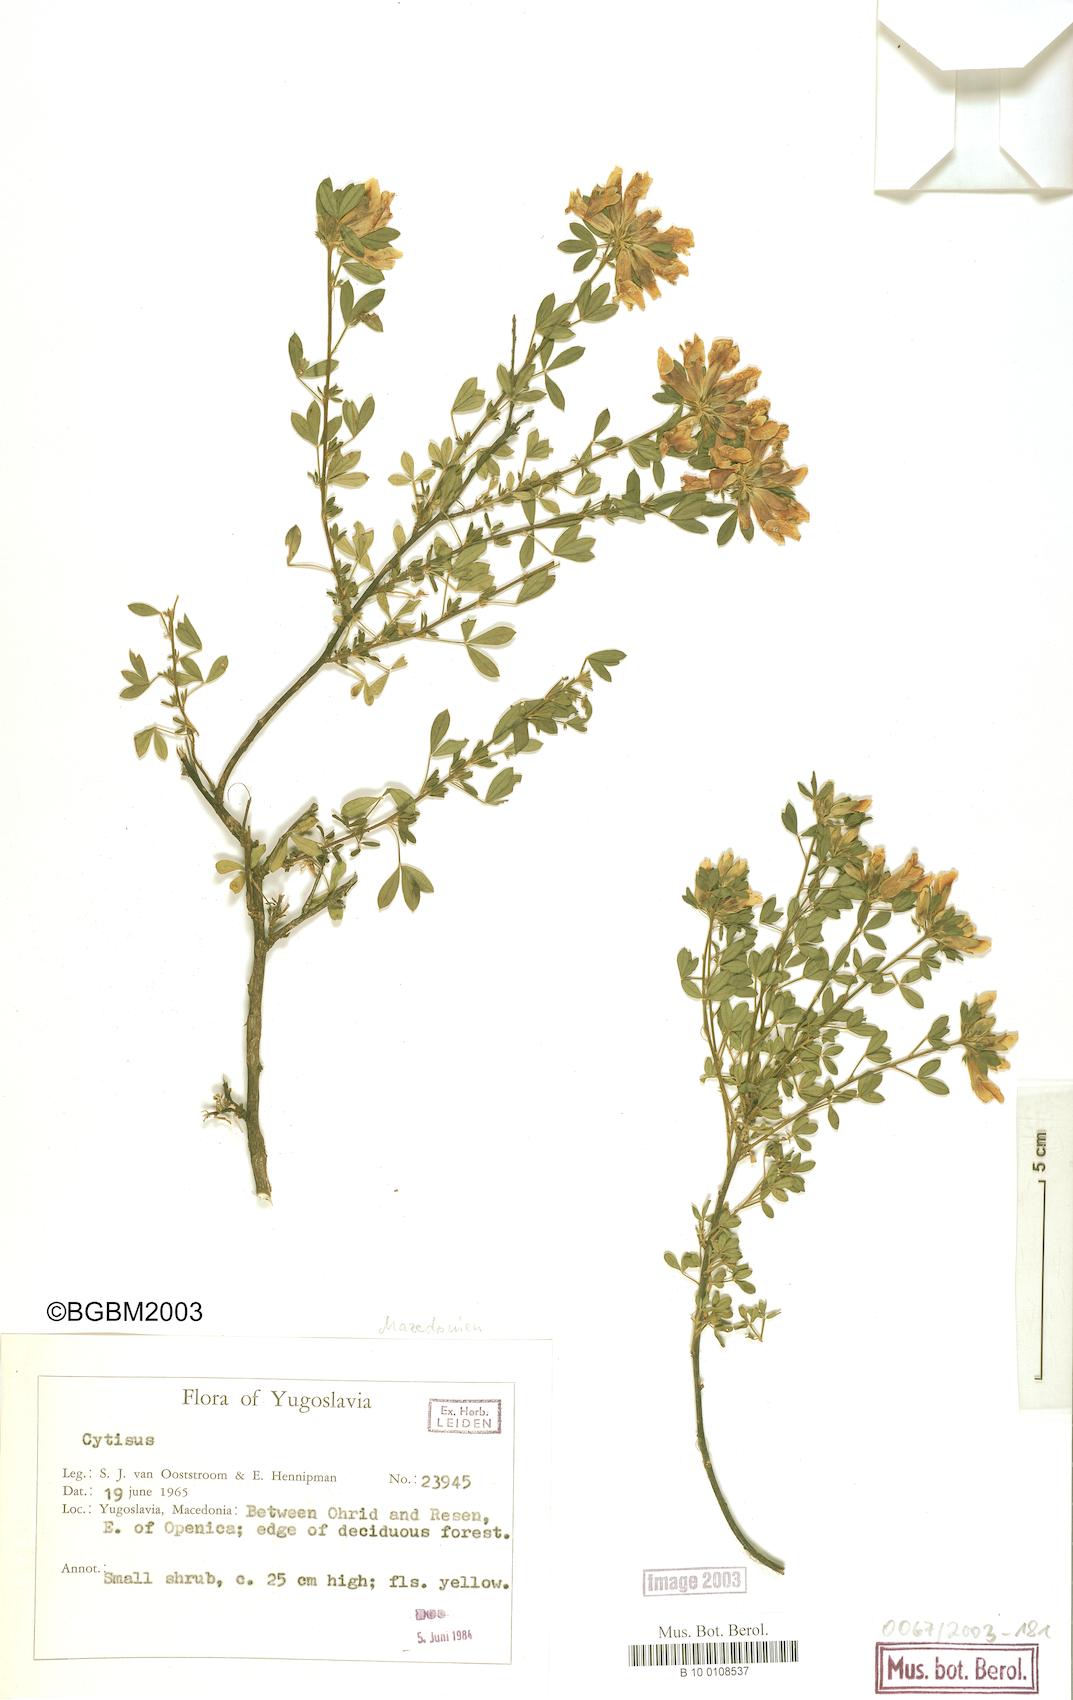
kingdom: Plantae
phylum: Tracheophyta
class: Magnoliopsida
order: Fabales
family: Fabaceae
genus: Cytisus
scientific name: Cytisus
